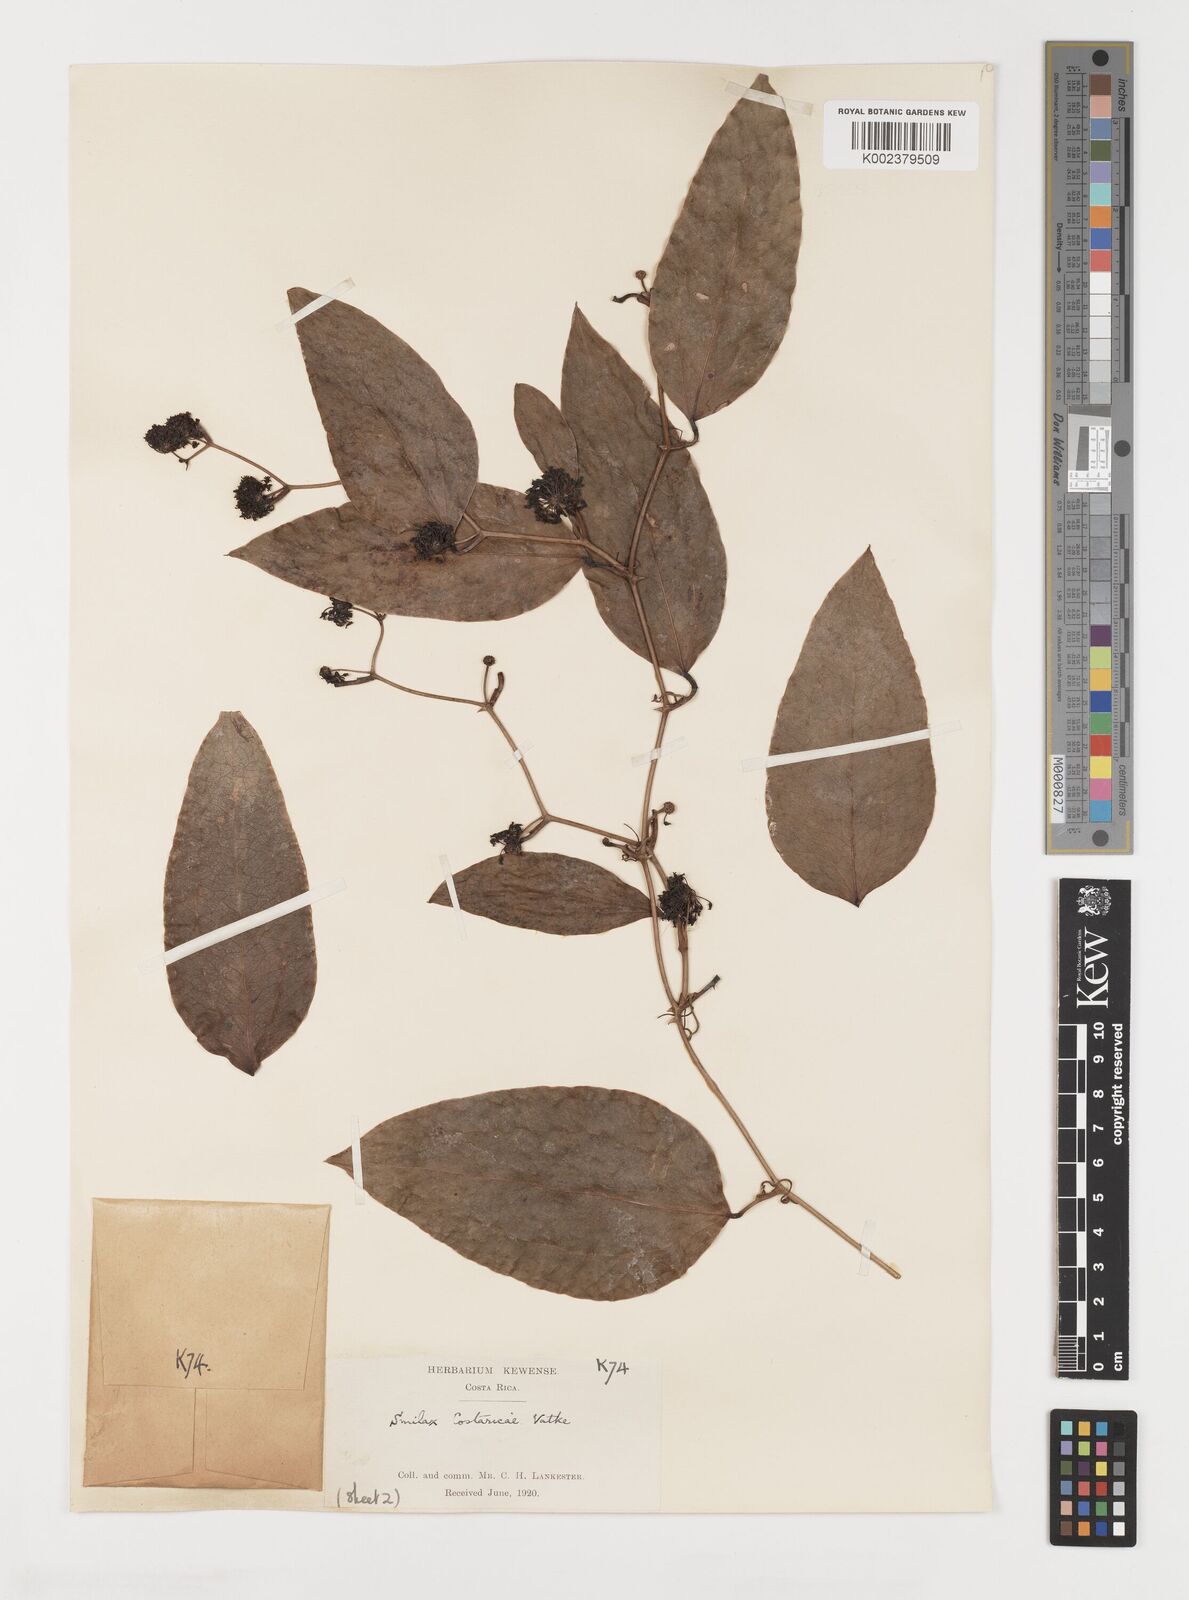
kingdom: Plantae
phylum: Tracheophyta
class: Liliopsida
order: Liliales
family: Smilacaceae
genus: Smilax
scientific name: Smilax spinosa
